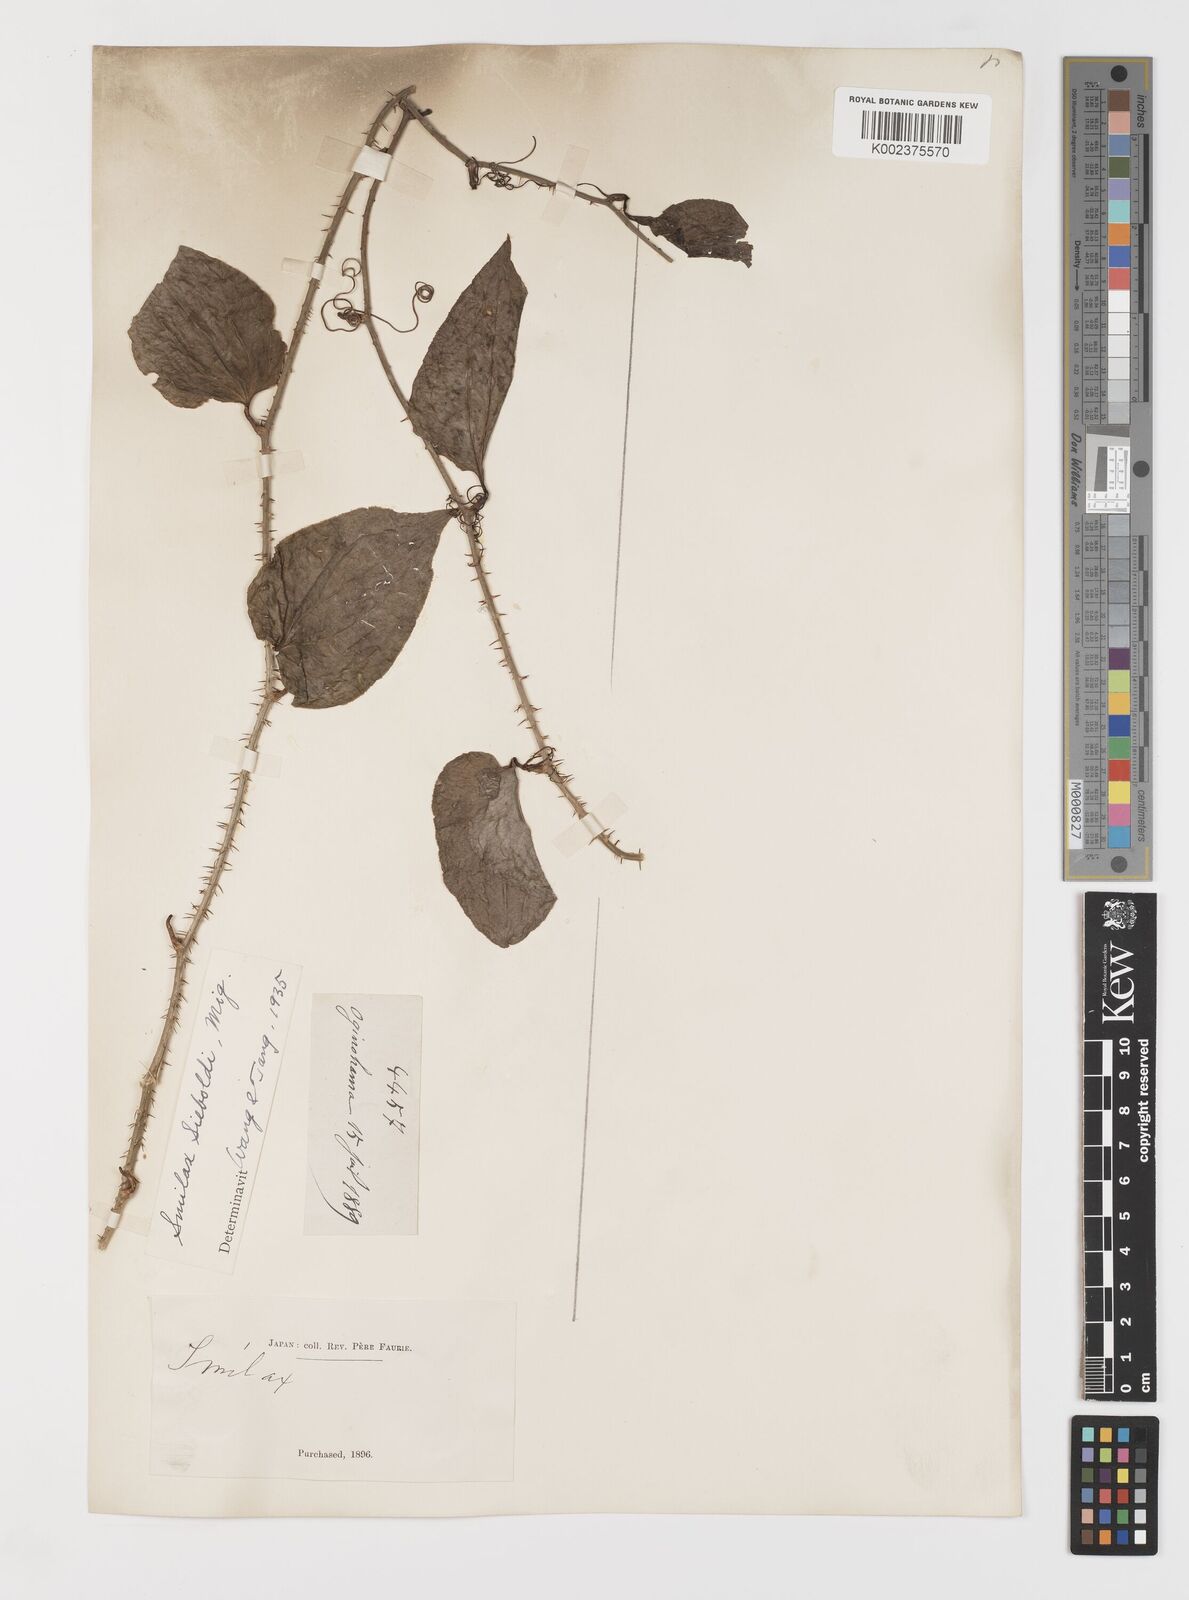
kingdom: Plantae
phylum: Tracheophyta
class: Liliopsida
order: Liliales
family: Smilacaceae
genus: Smilax
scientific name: Smilax sieboldii
